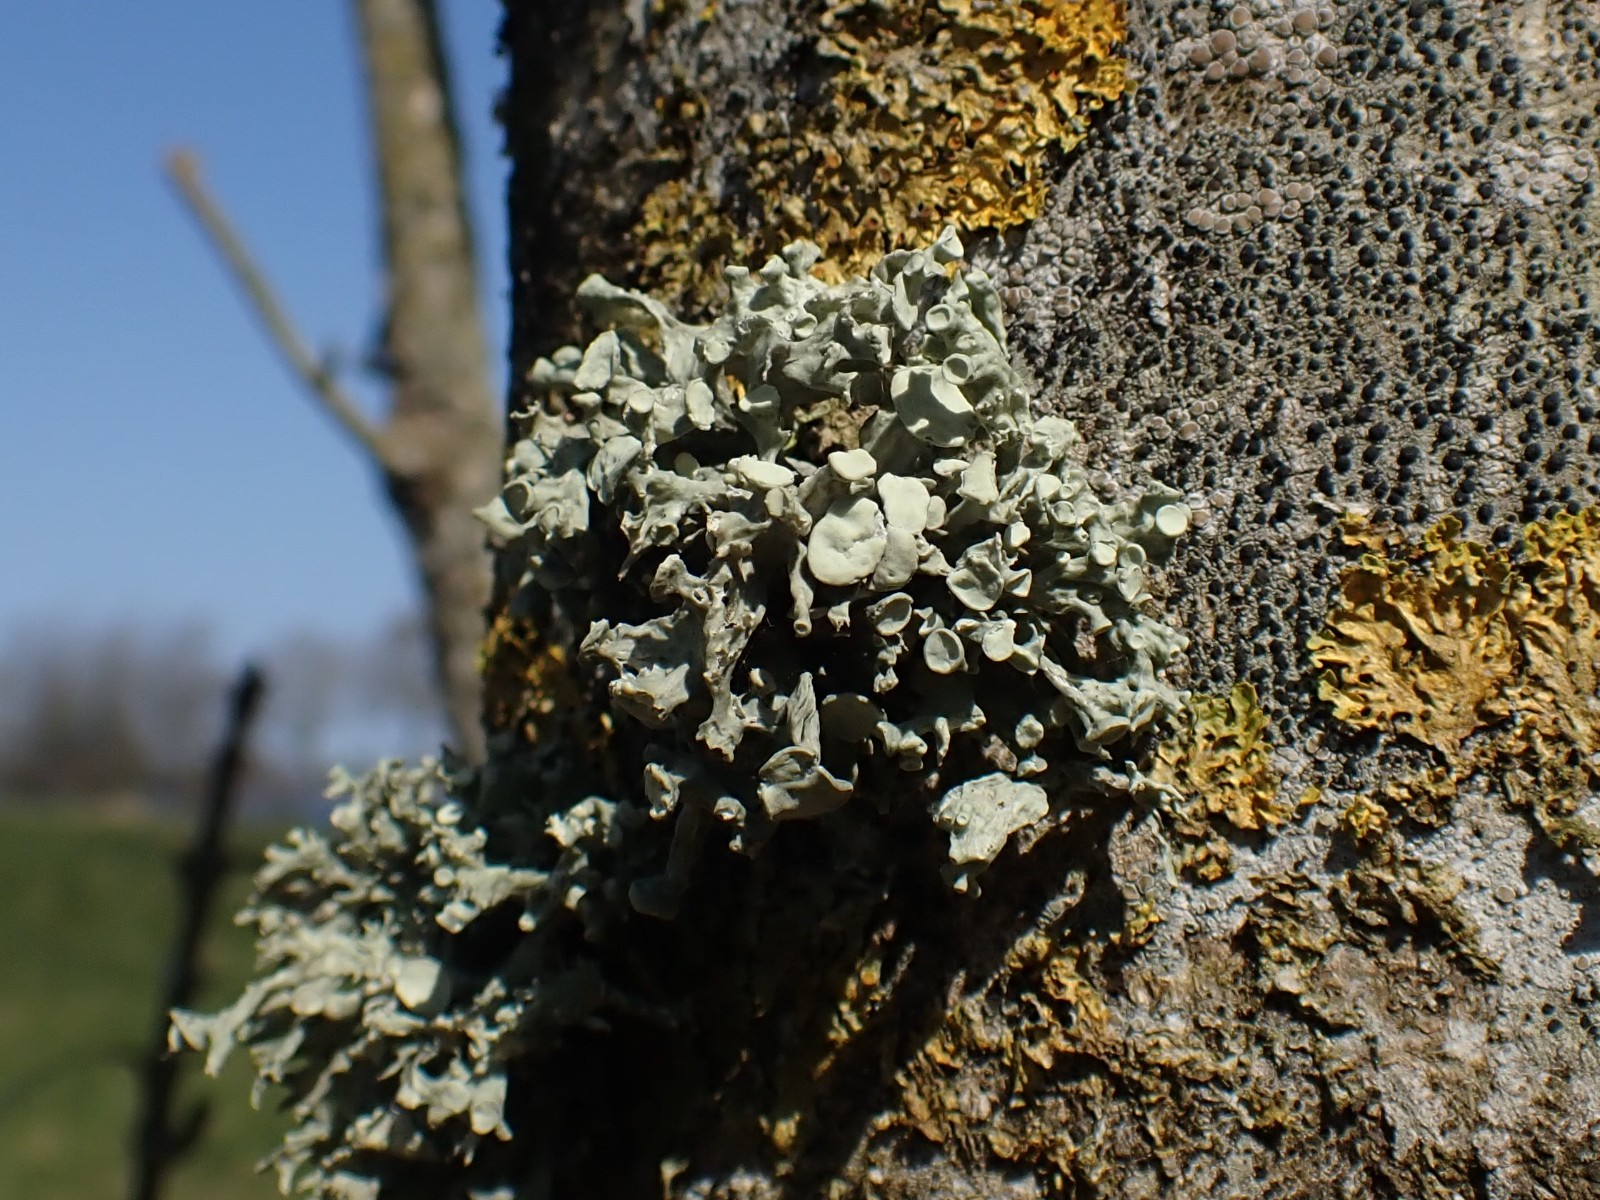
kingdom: Fungi
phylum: Ascomycota
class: Lecanoromycetes
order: Lecanorales
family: Ramalinaceae
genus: Ramalina
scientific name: Ramalina fastigiata
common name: tue-grenlav
